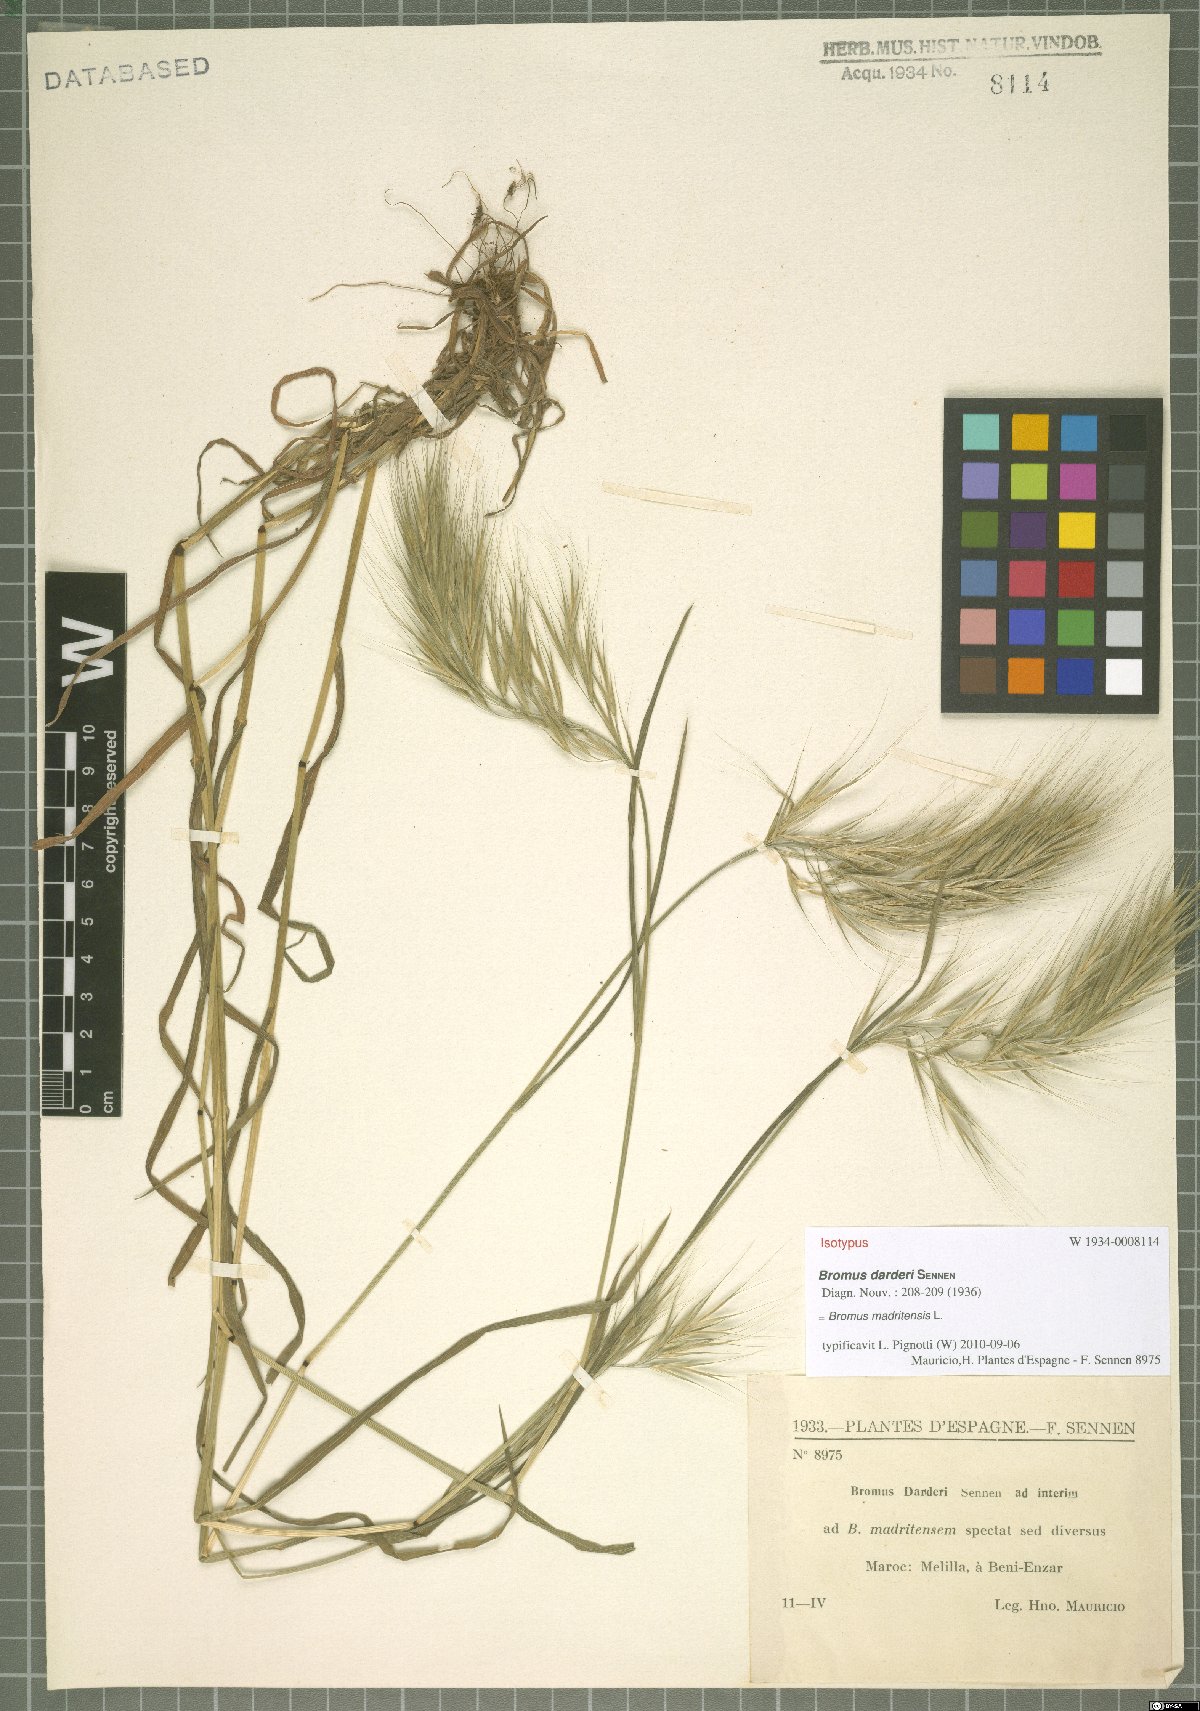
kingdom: Plantae
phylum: Tracheophyta
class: Liliopsida
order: Poales
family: Poaceae
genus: Bromus
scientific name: Bromus madritensis
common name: Compact brome
